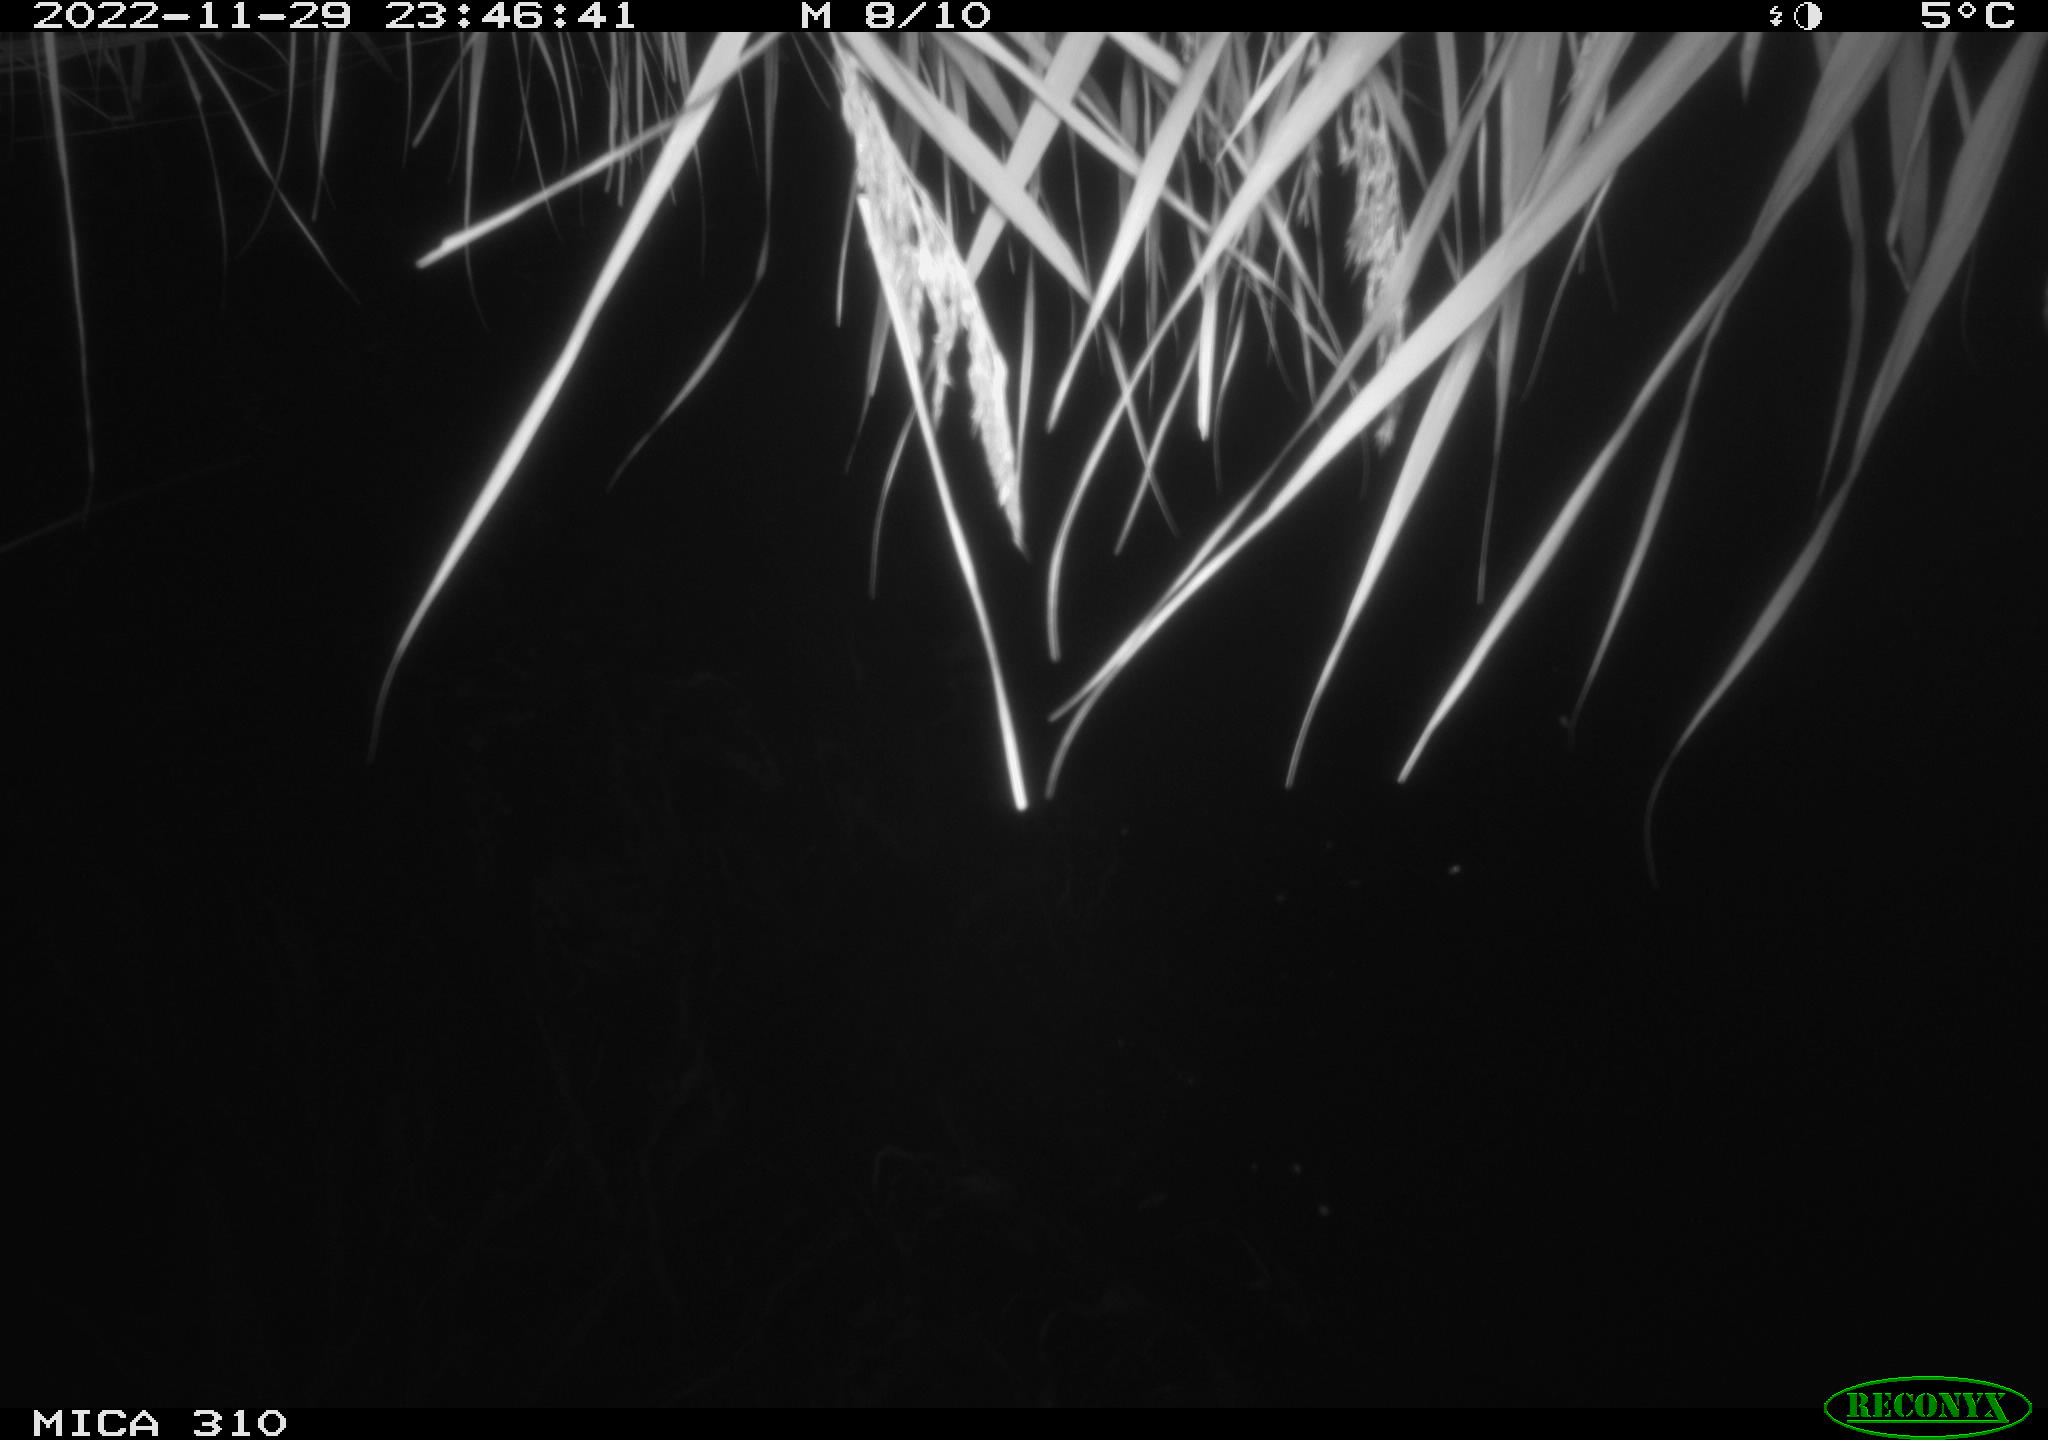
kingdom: Animalia
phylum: Chordata
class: Mammalia
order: Rodentia
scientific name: Rodentia
